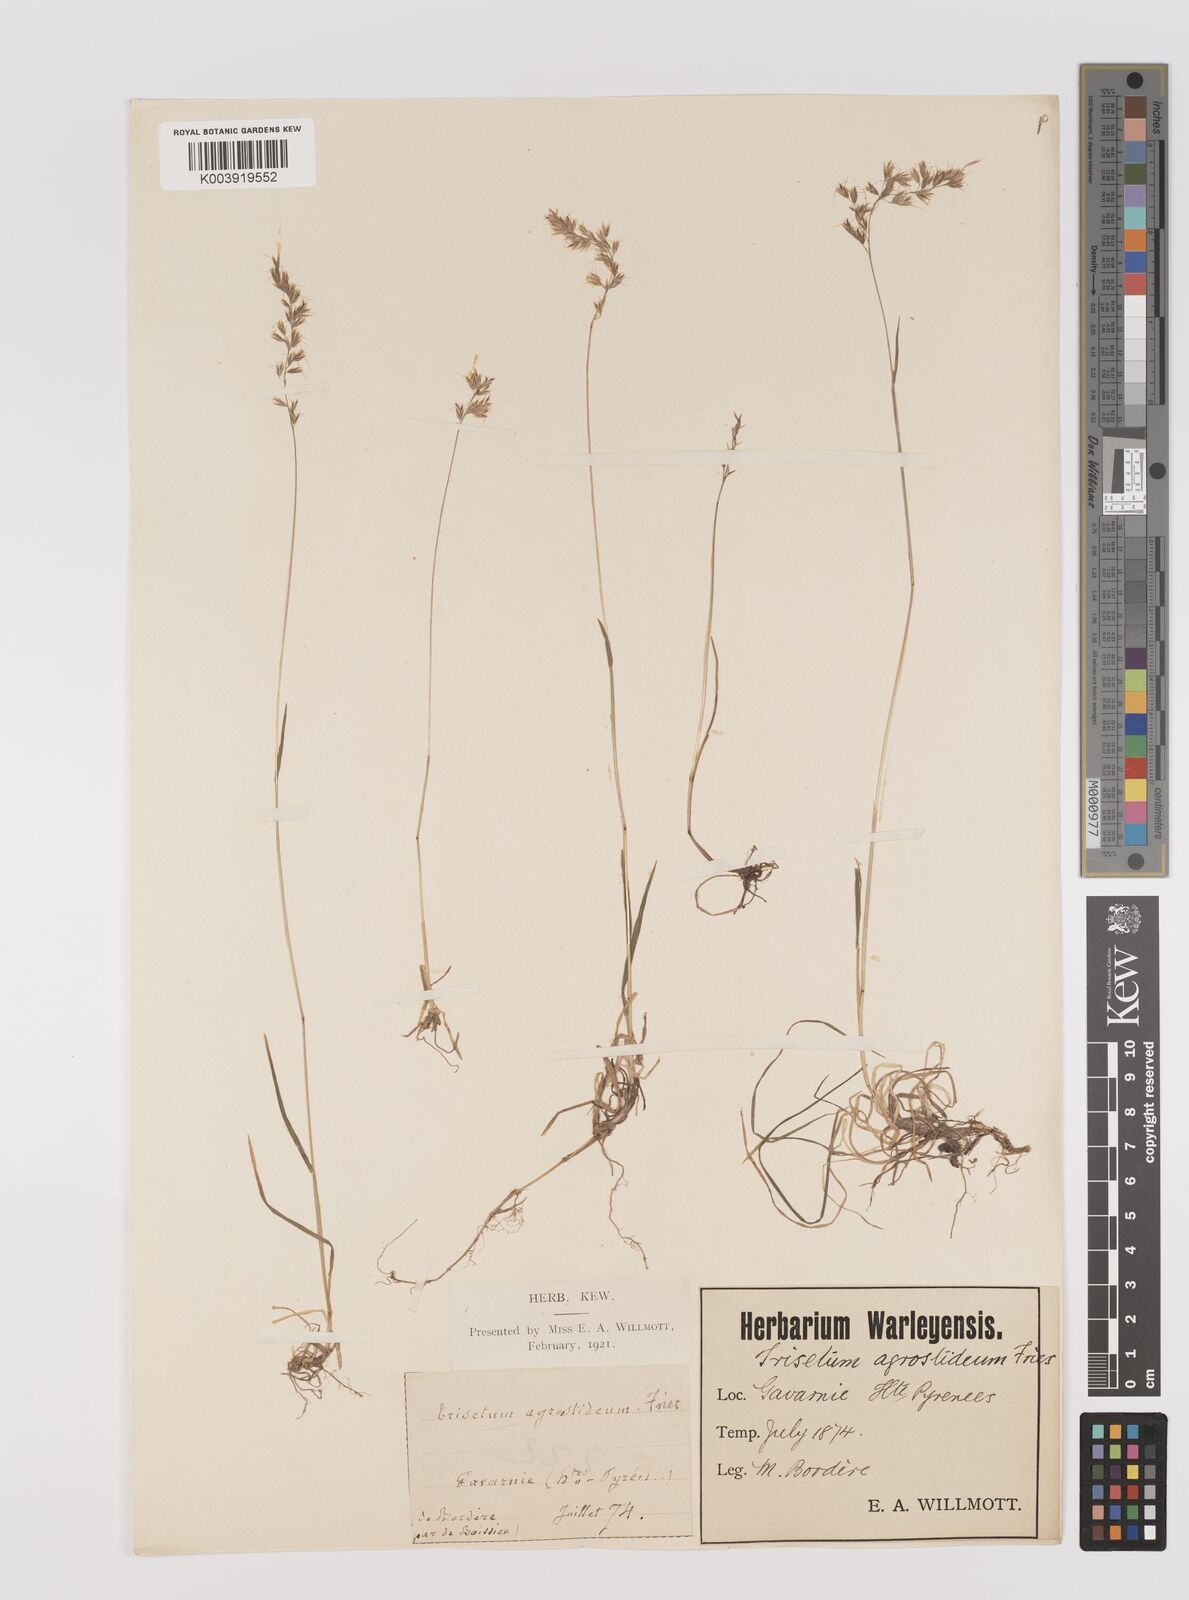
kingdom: Plantae
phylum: Tracheophyta
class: Liliopsida
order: Poales
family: Poaceae
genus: Trisetum
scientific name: Trisetum alpestre
